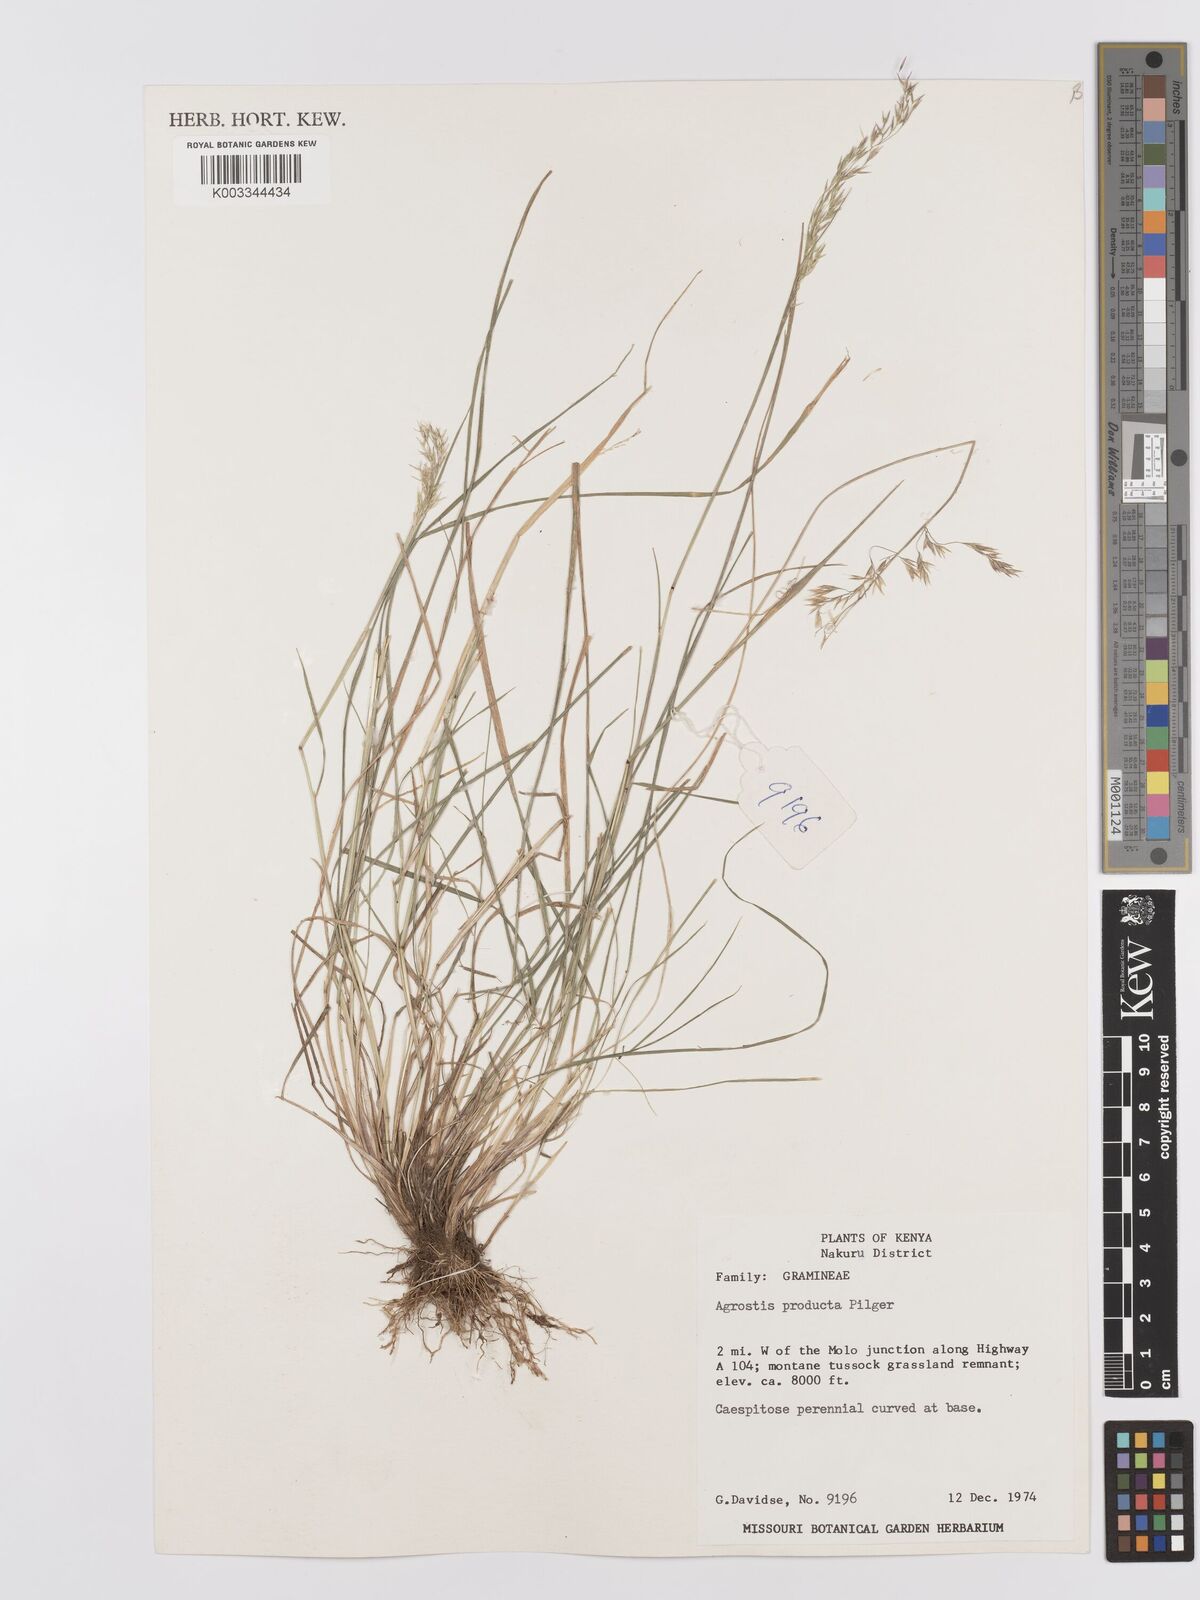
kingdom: Plantae
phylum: Tracheophyta
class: Liliopsida
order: Poales
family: Poaceae
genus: Agrostis
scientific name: Agrostis producta
